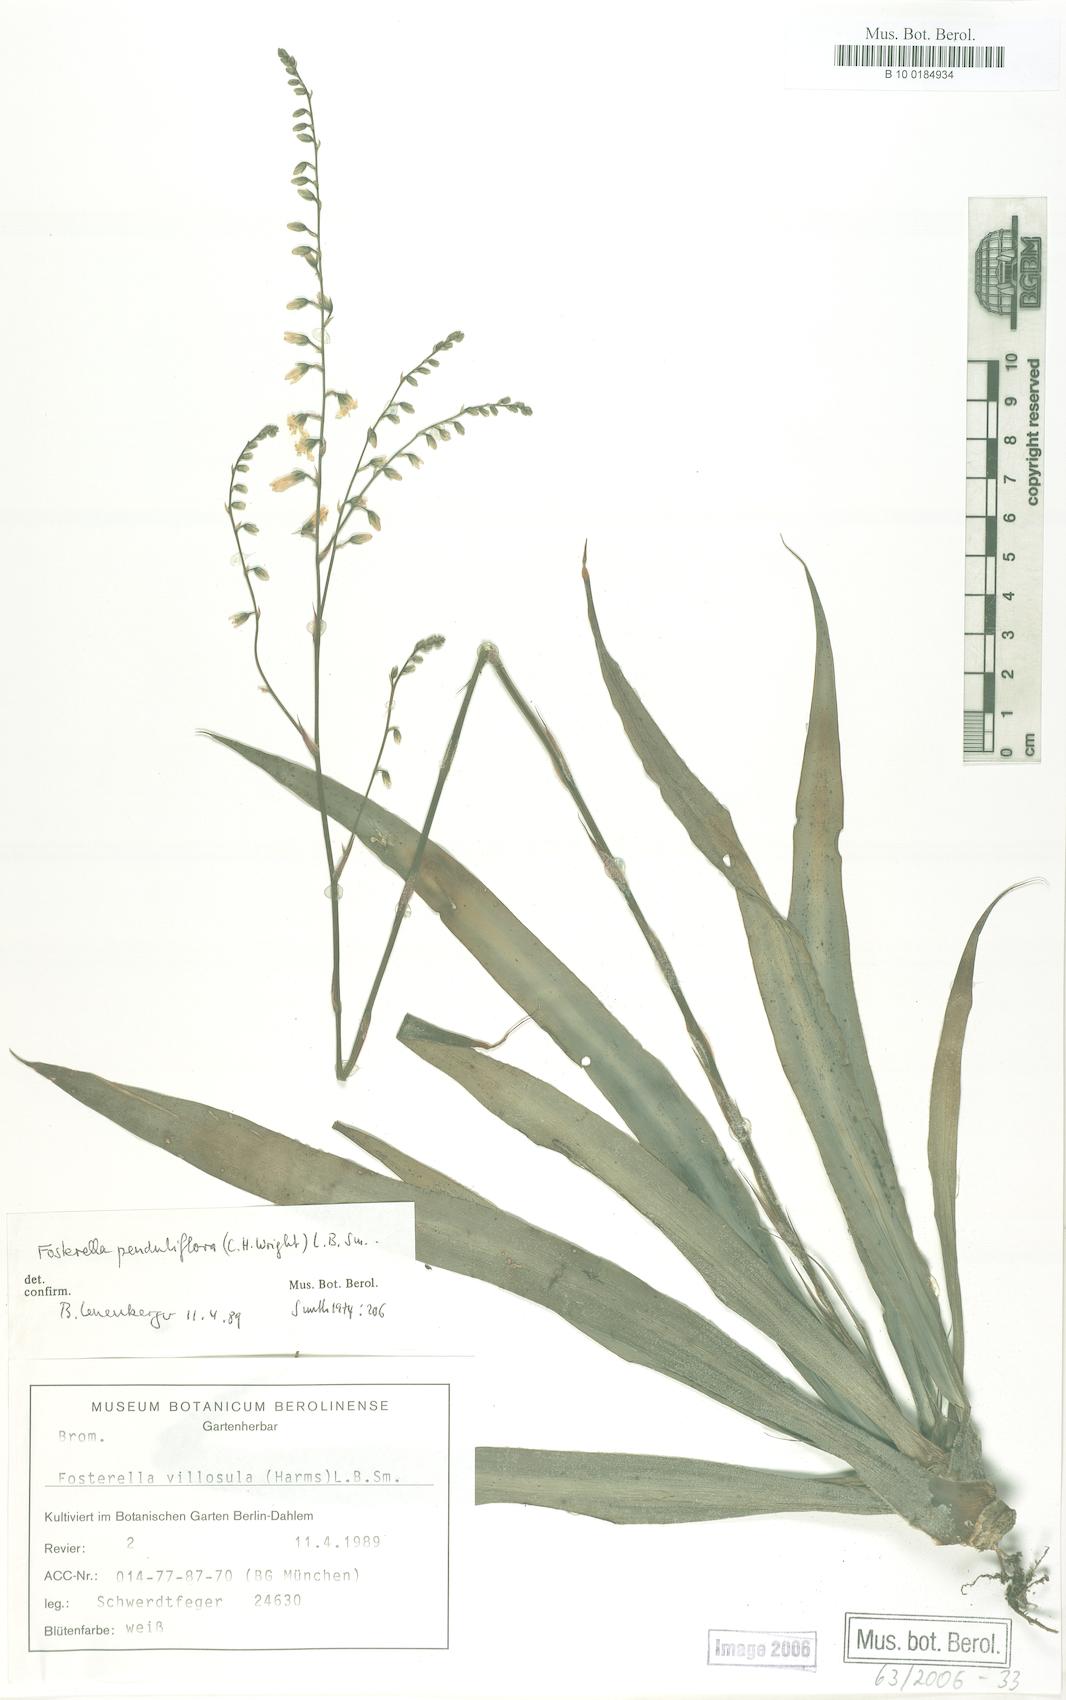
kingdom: Plantae
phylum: Tracheophyta
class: Liliopsida
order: Poales
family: Bromeliaceae
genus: Fosterella
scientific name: Fosterella penduliflora
